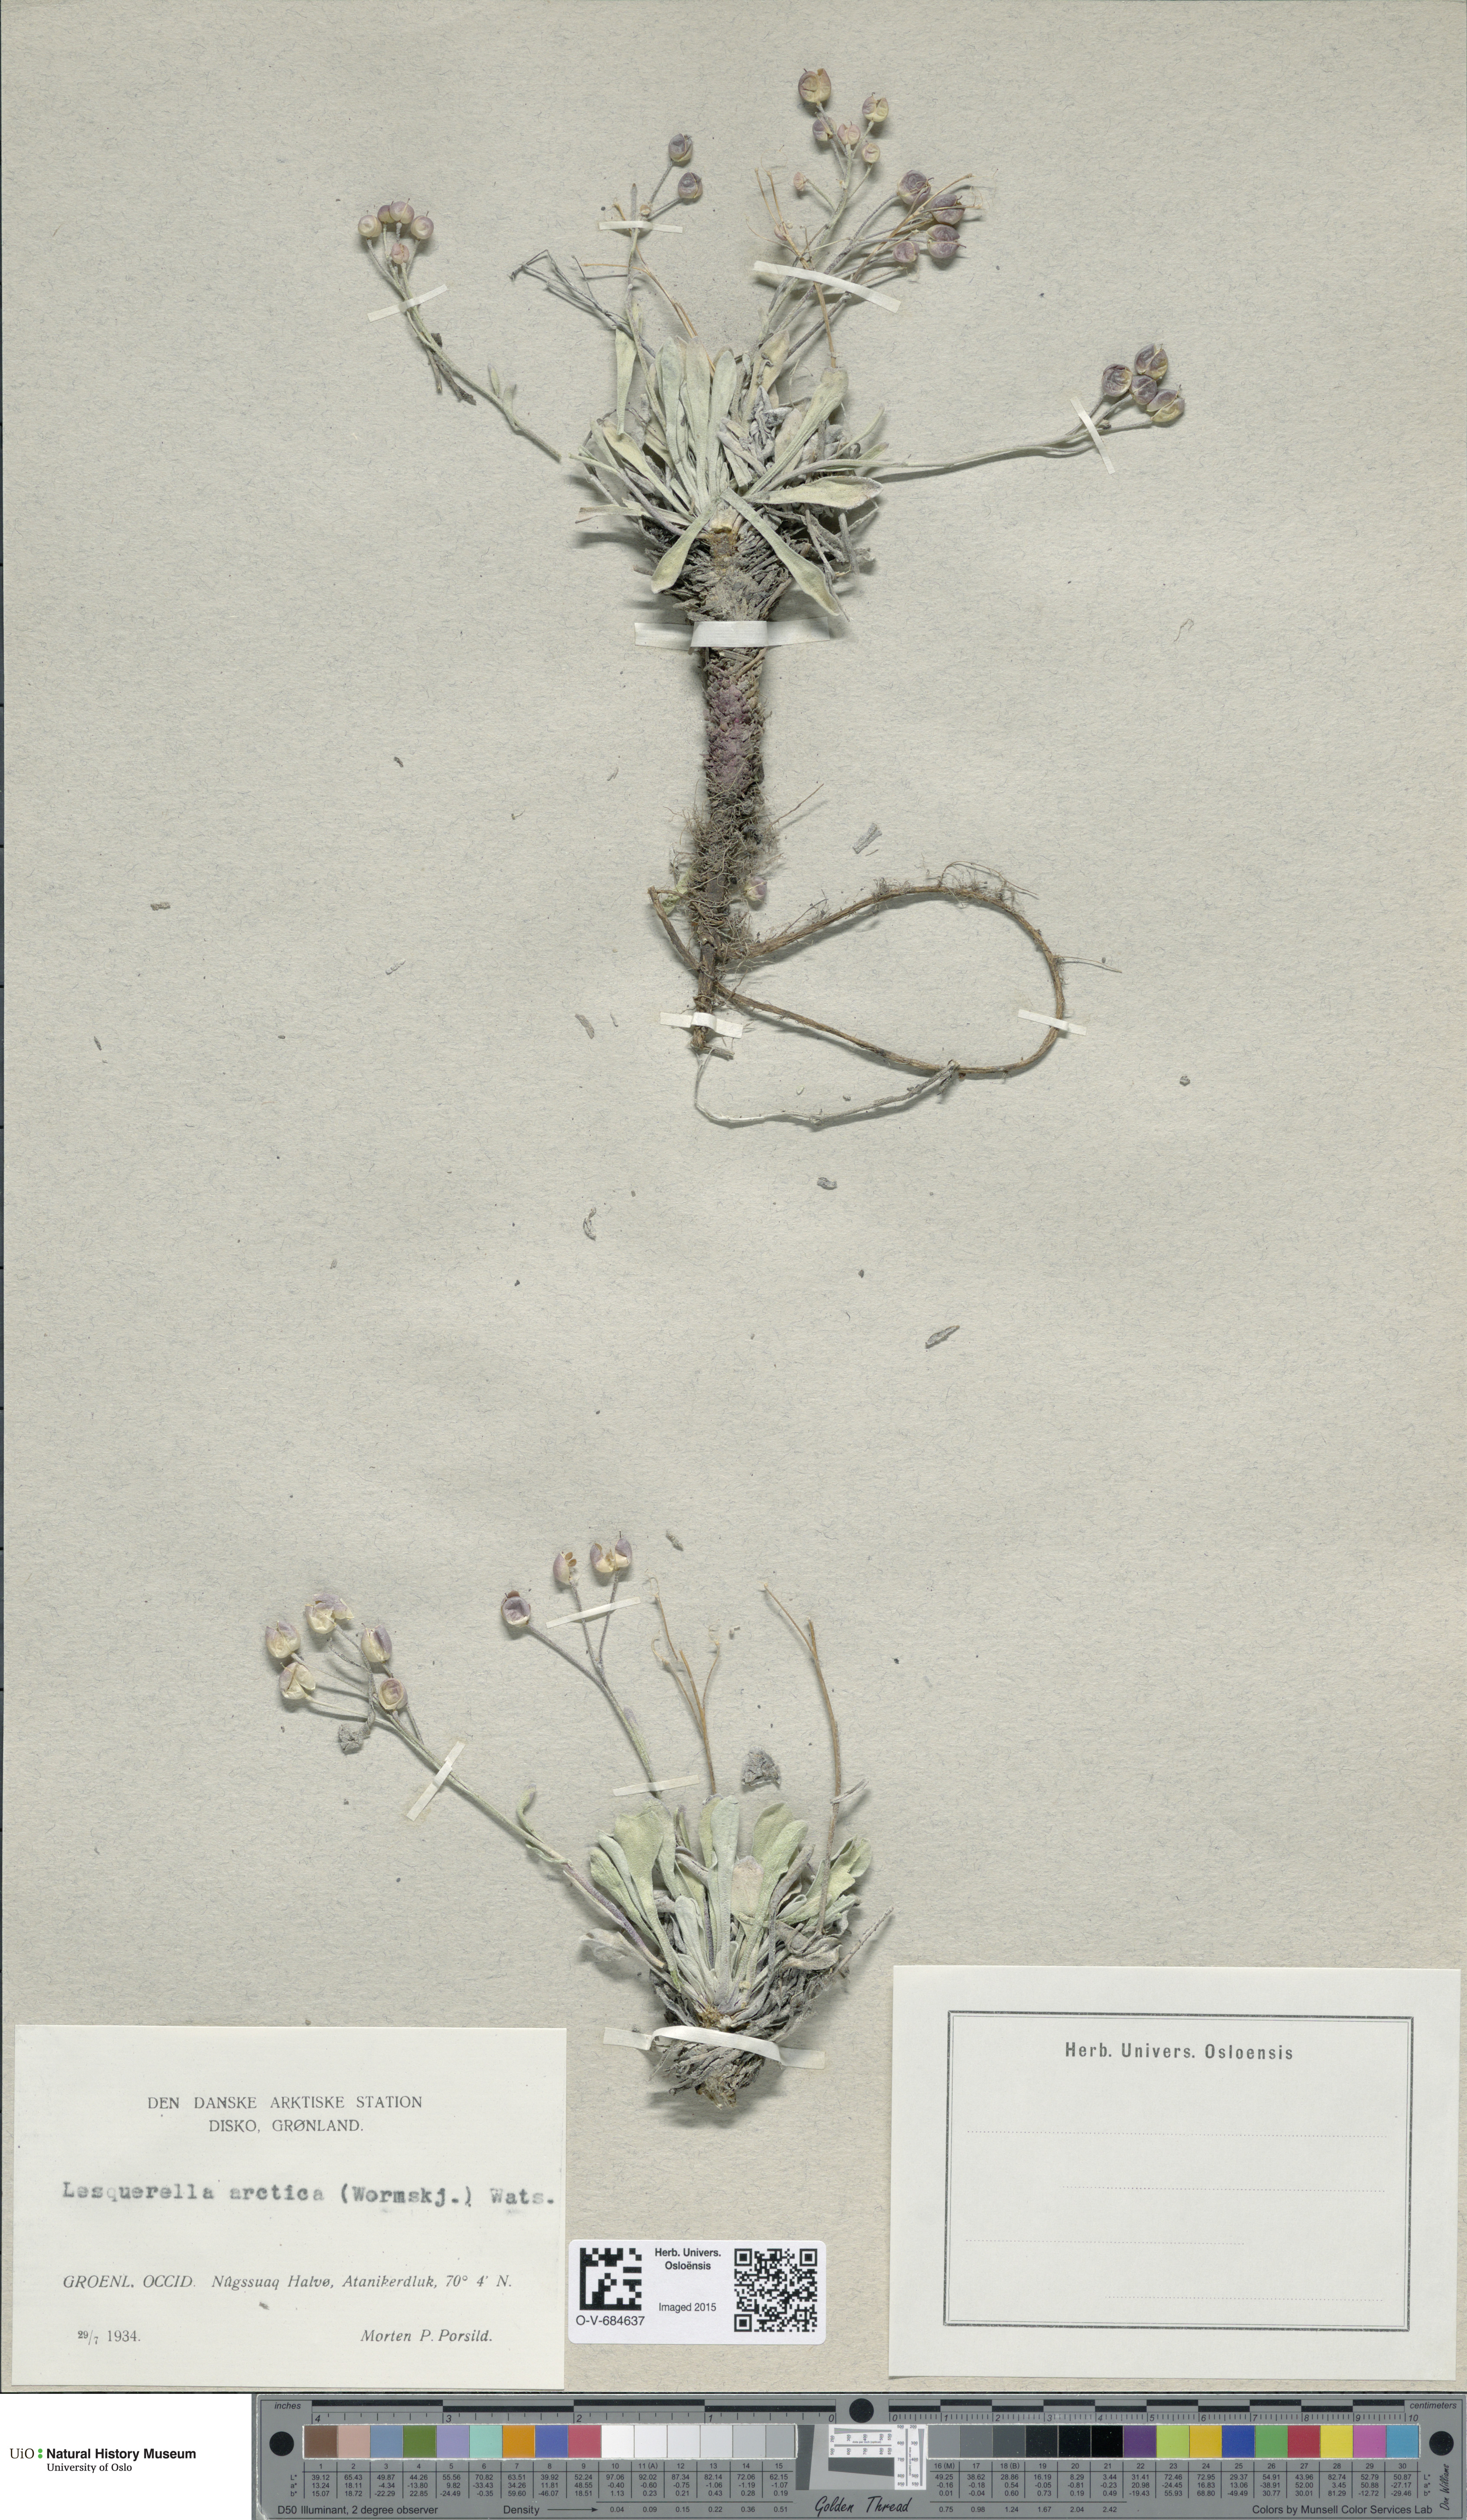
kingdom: Plantae
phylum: Tracheophyta
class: Magnoliopsida
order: Brassicales
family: Brassicaceae
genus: Physaria
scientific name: Physaria arctica
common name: Arctic bladderpod
